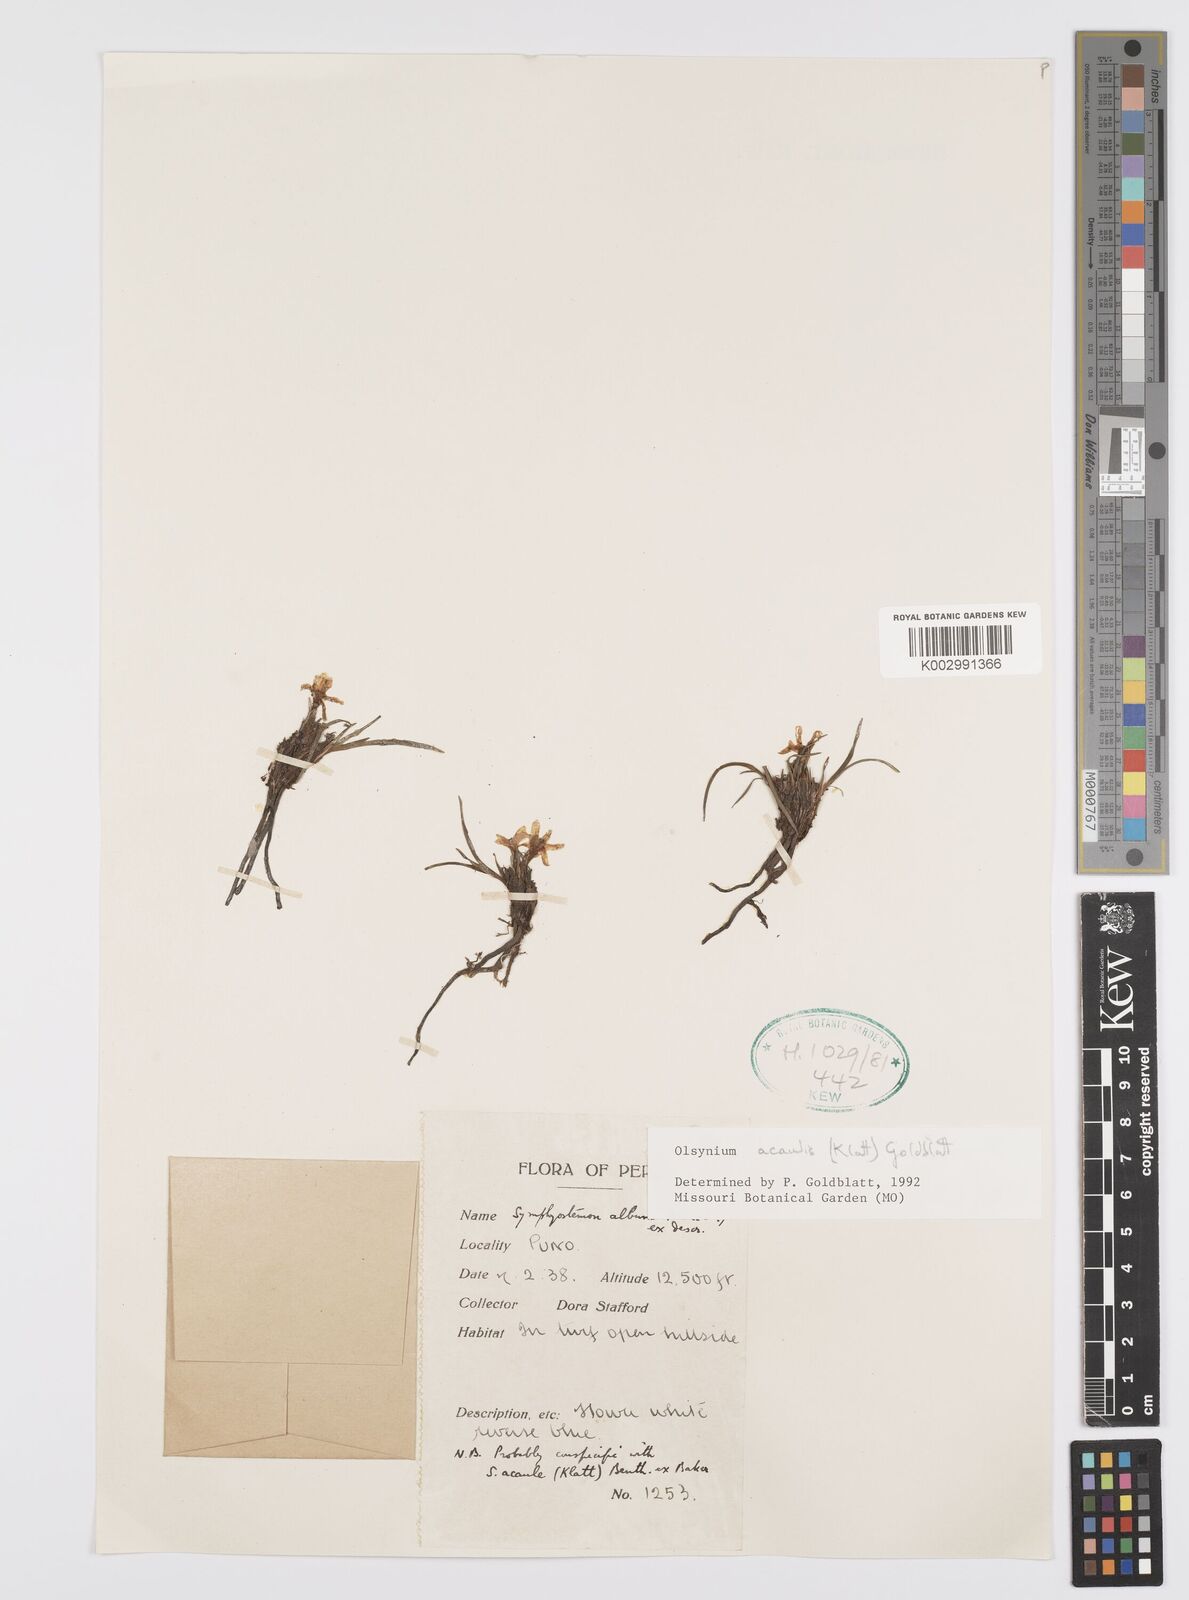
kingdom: Plantae
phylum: Tracheophyta
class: Liliopsida
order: Asparagales
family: Iridaceae
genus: Olsynium
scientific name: Olsynium acaule
